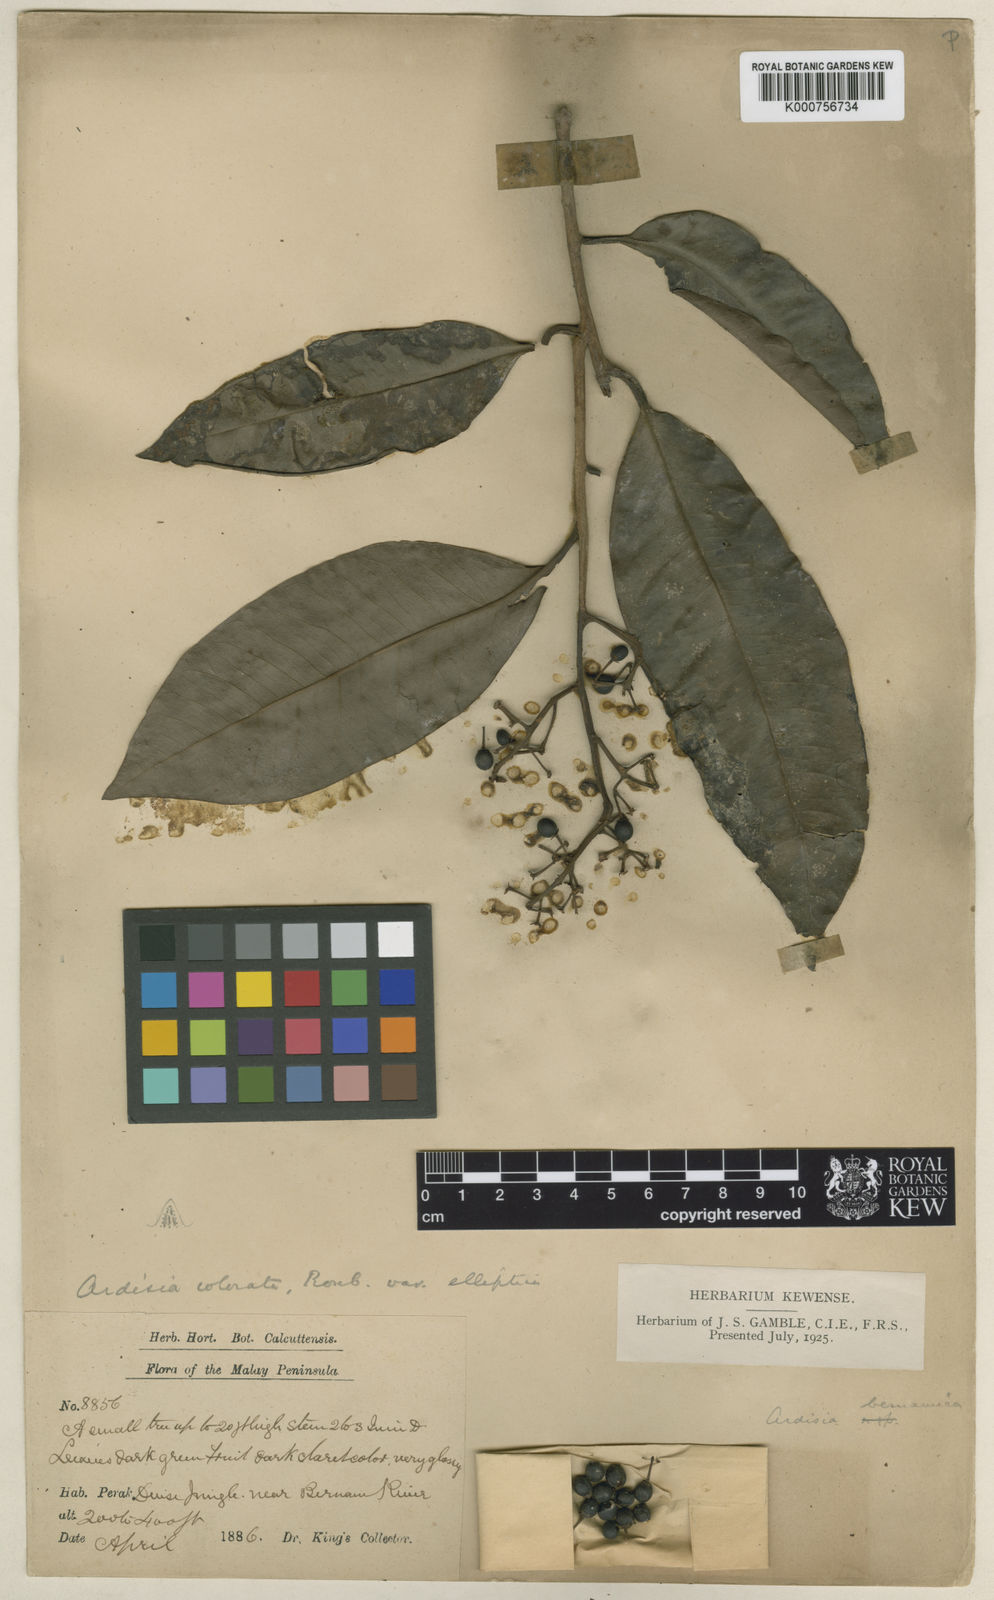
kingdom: Plantae
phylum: Tracheophyta
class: Magnoliopsida
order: Ericales
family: Primulaceae
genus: Ardisia
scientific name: Ardisia complanata
